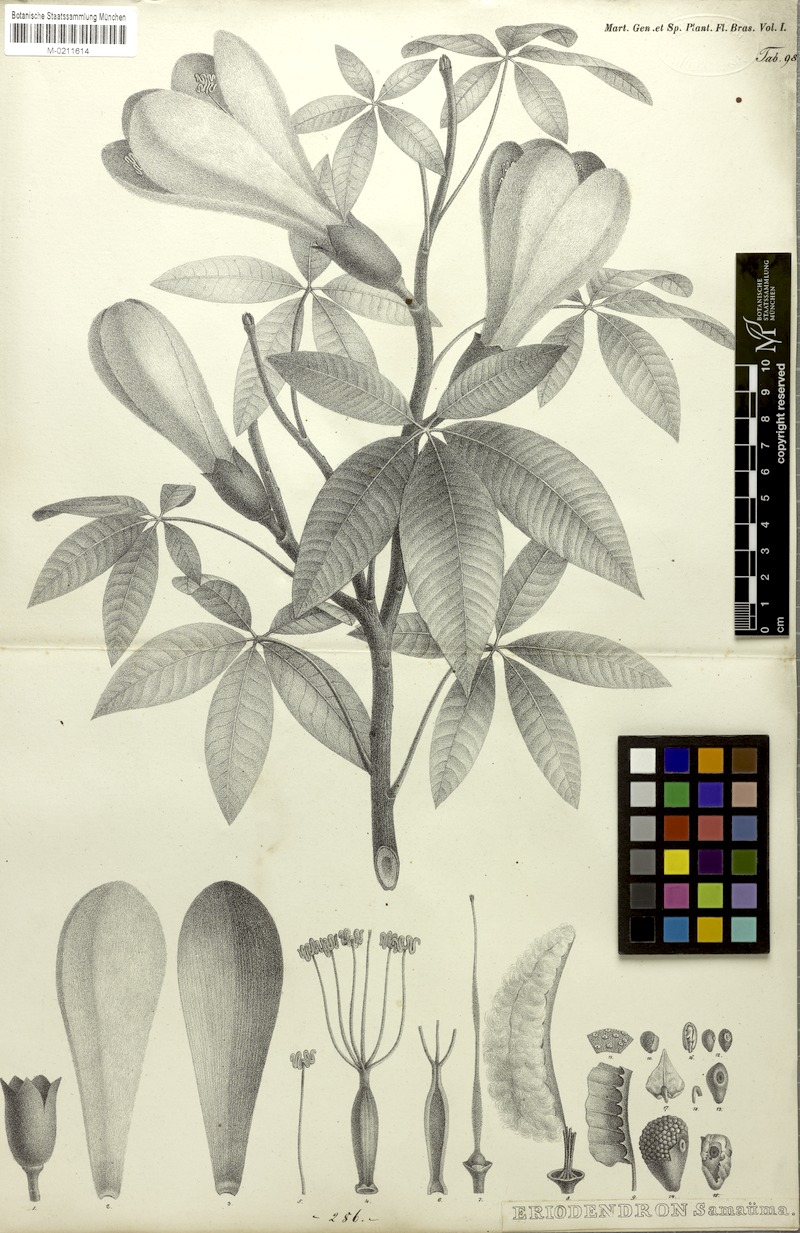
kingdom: Plantae
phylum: Tracheophyta
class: Magnoliopsida
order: Malvales
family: Malvaceae
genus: Ceiba
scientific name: Ceiba samauma
